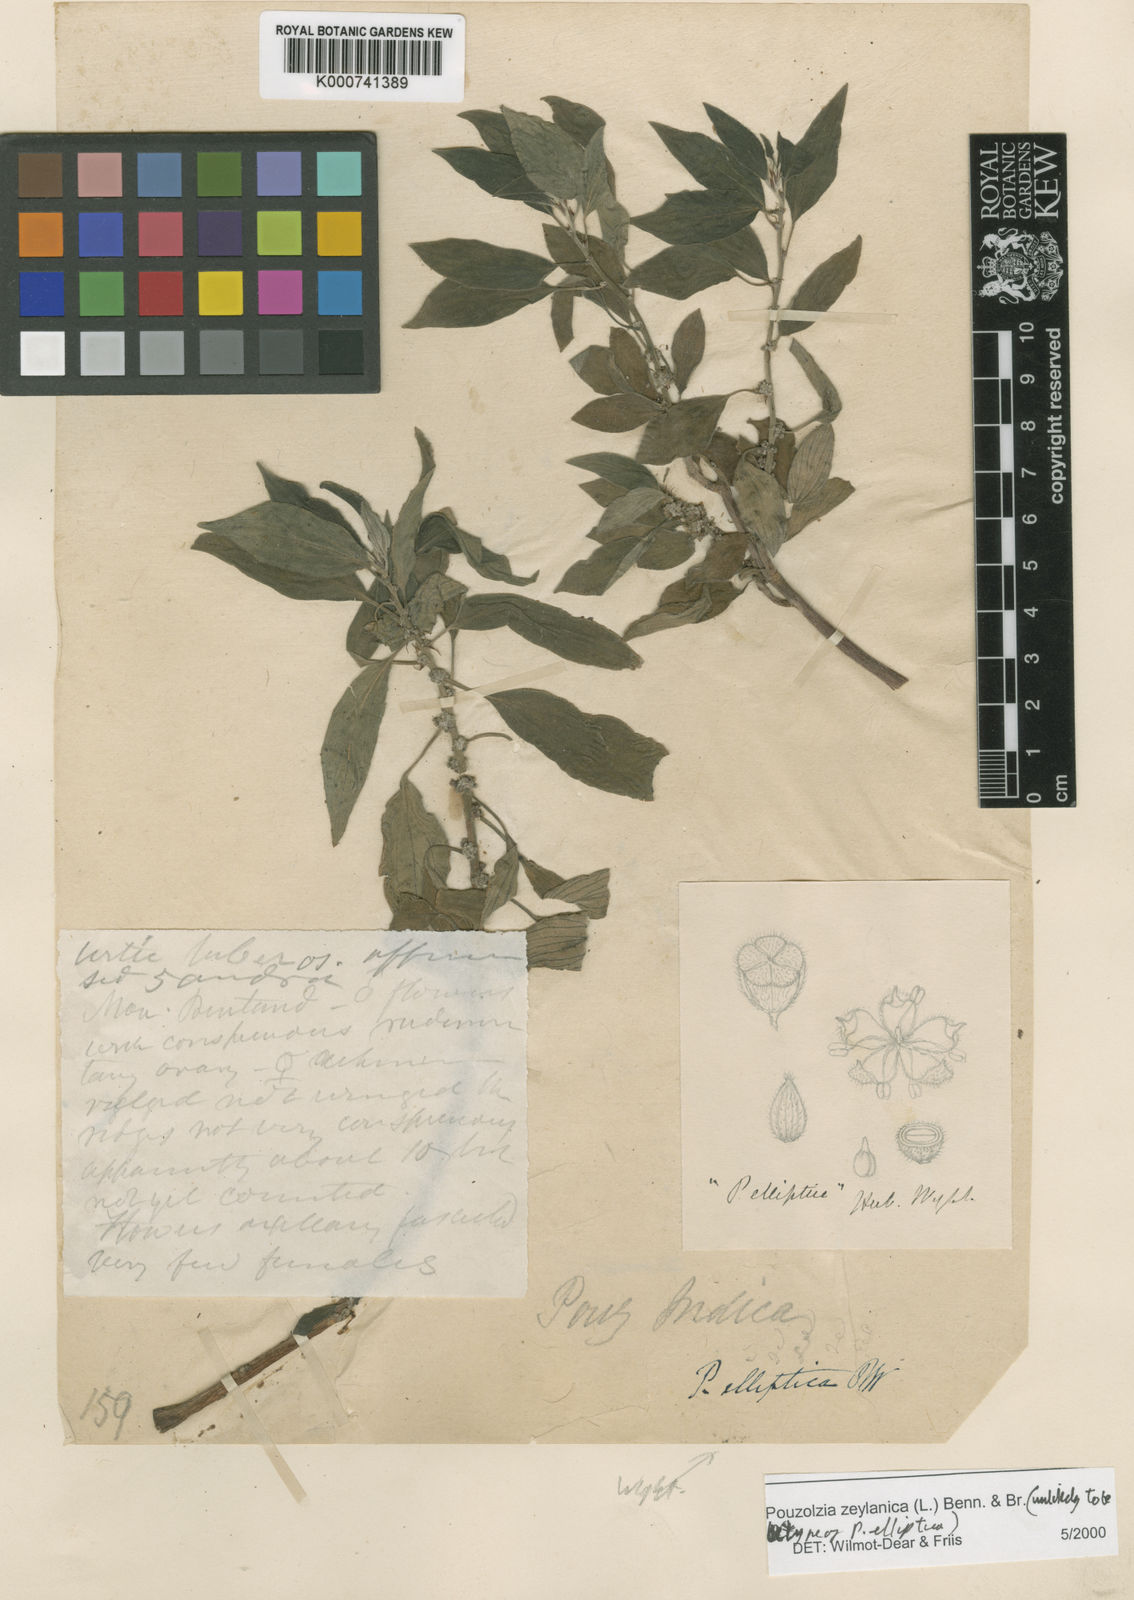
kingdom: Plantae
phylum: Tracheophyta
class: Magnoliopsida
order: Rosales
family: Urticaceae
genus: Pouzolzia
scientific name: Pouzolzia zeylanica
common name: Graceful pouzolzsbush
